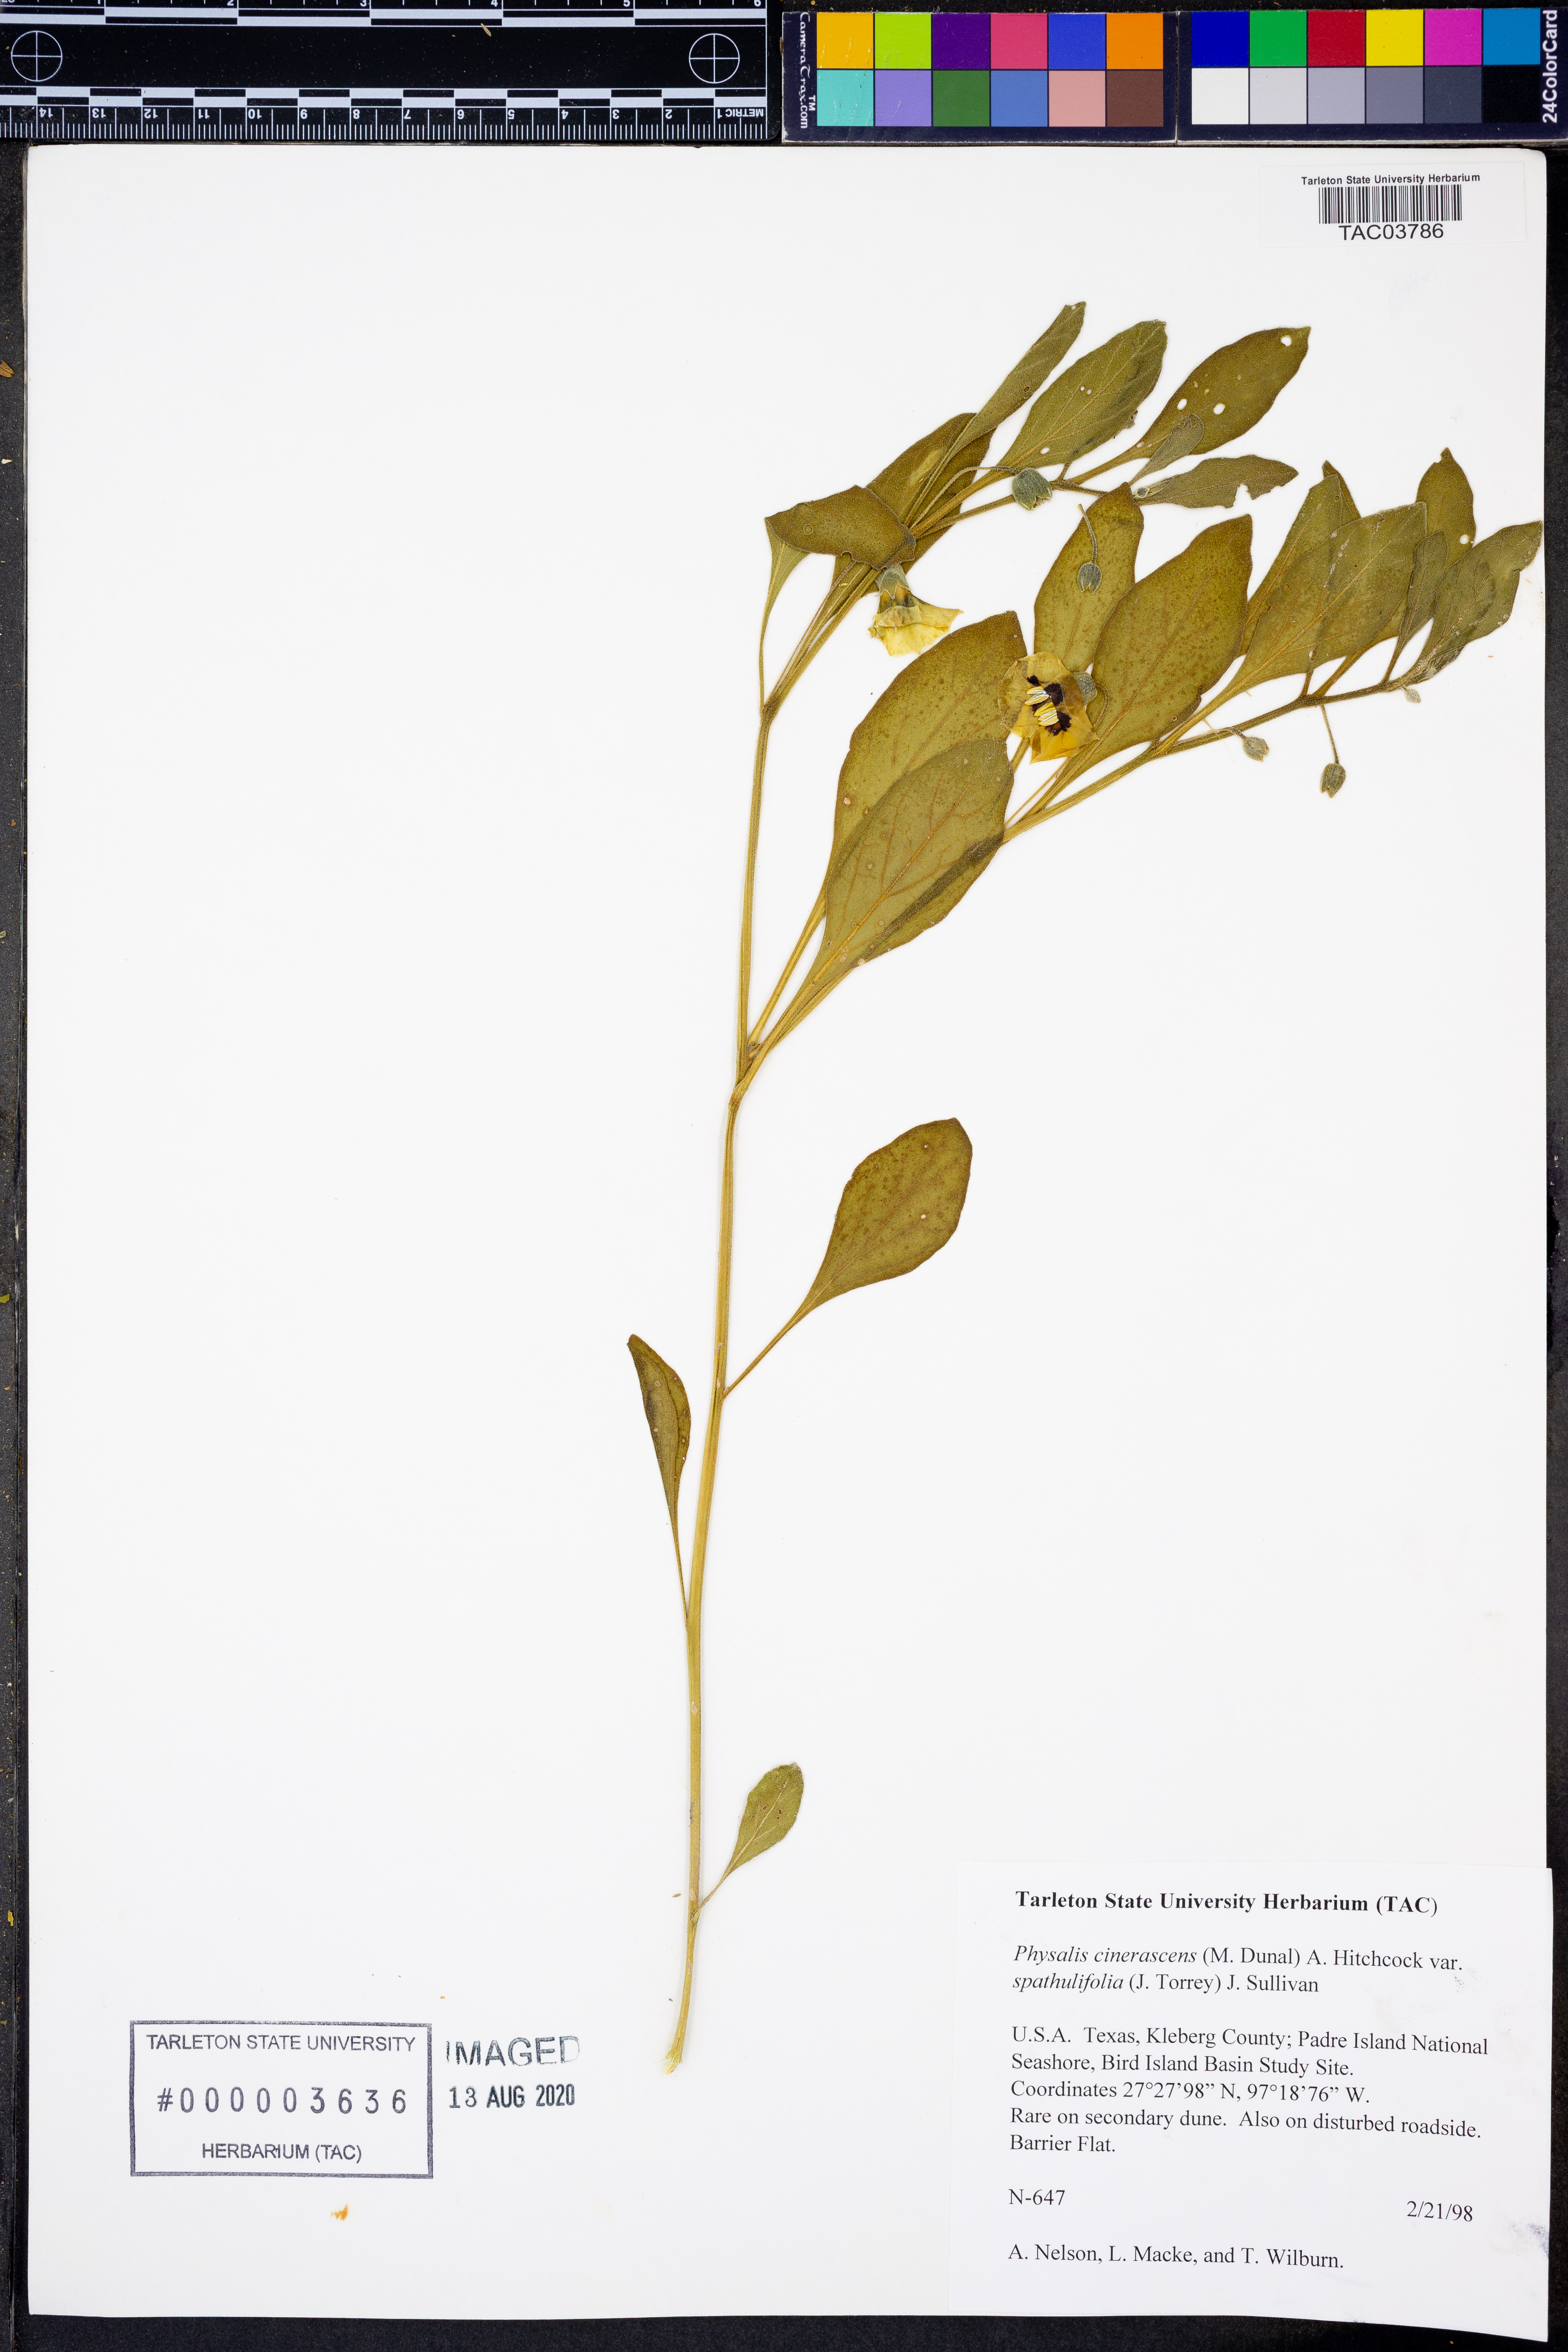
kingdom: Plantae
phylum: Tracheophyta
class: Magnoliopsida
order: Solanales
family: Solanaceae
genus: Physalis
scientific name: Physalis cinerascens
